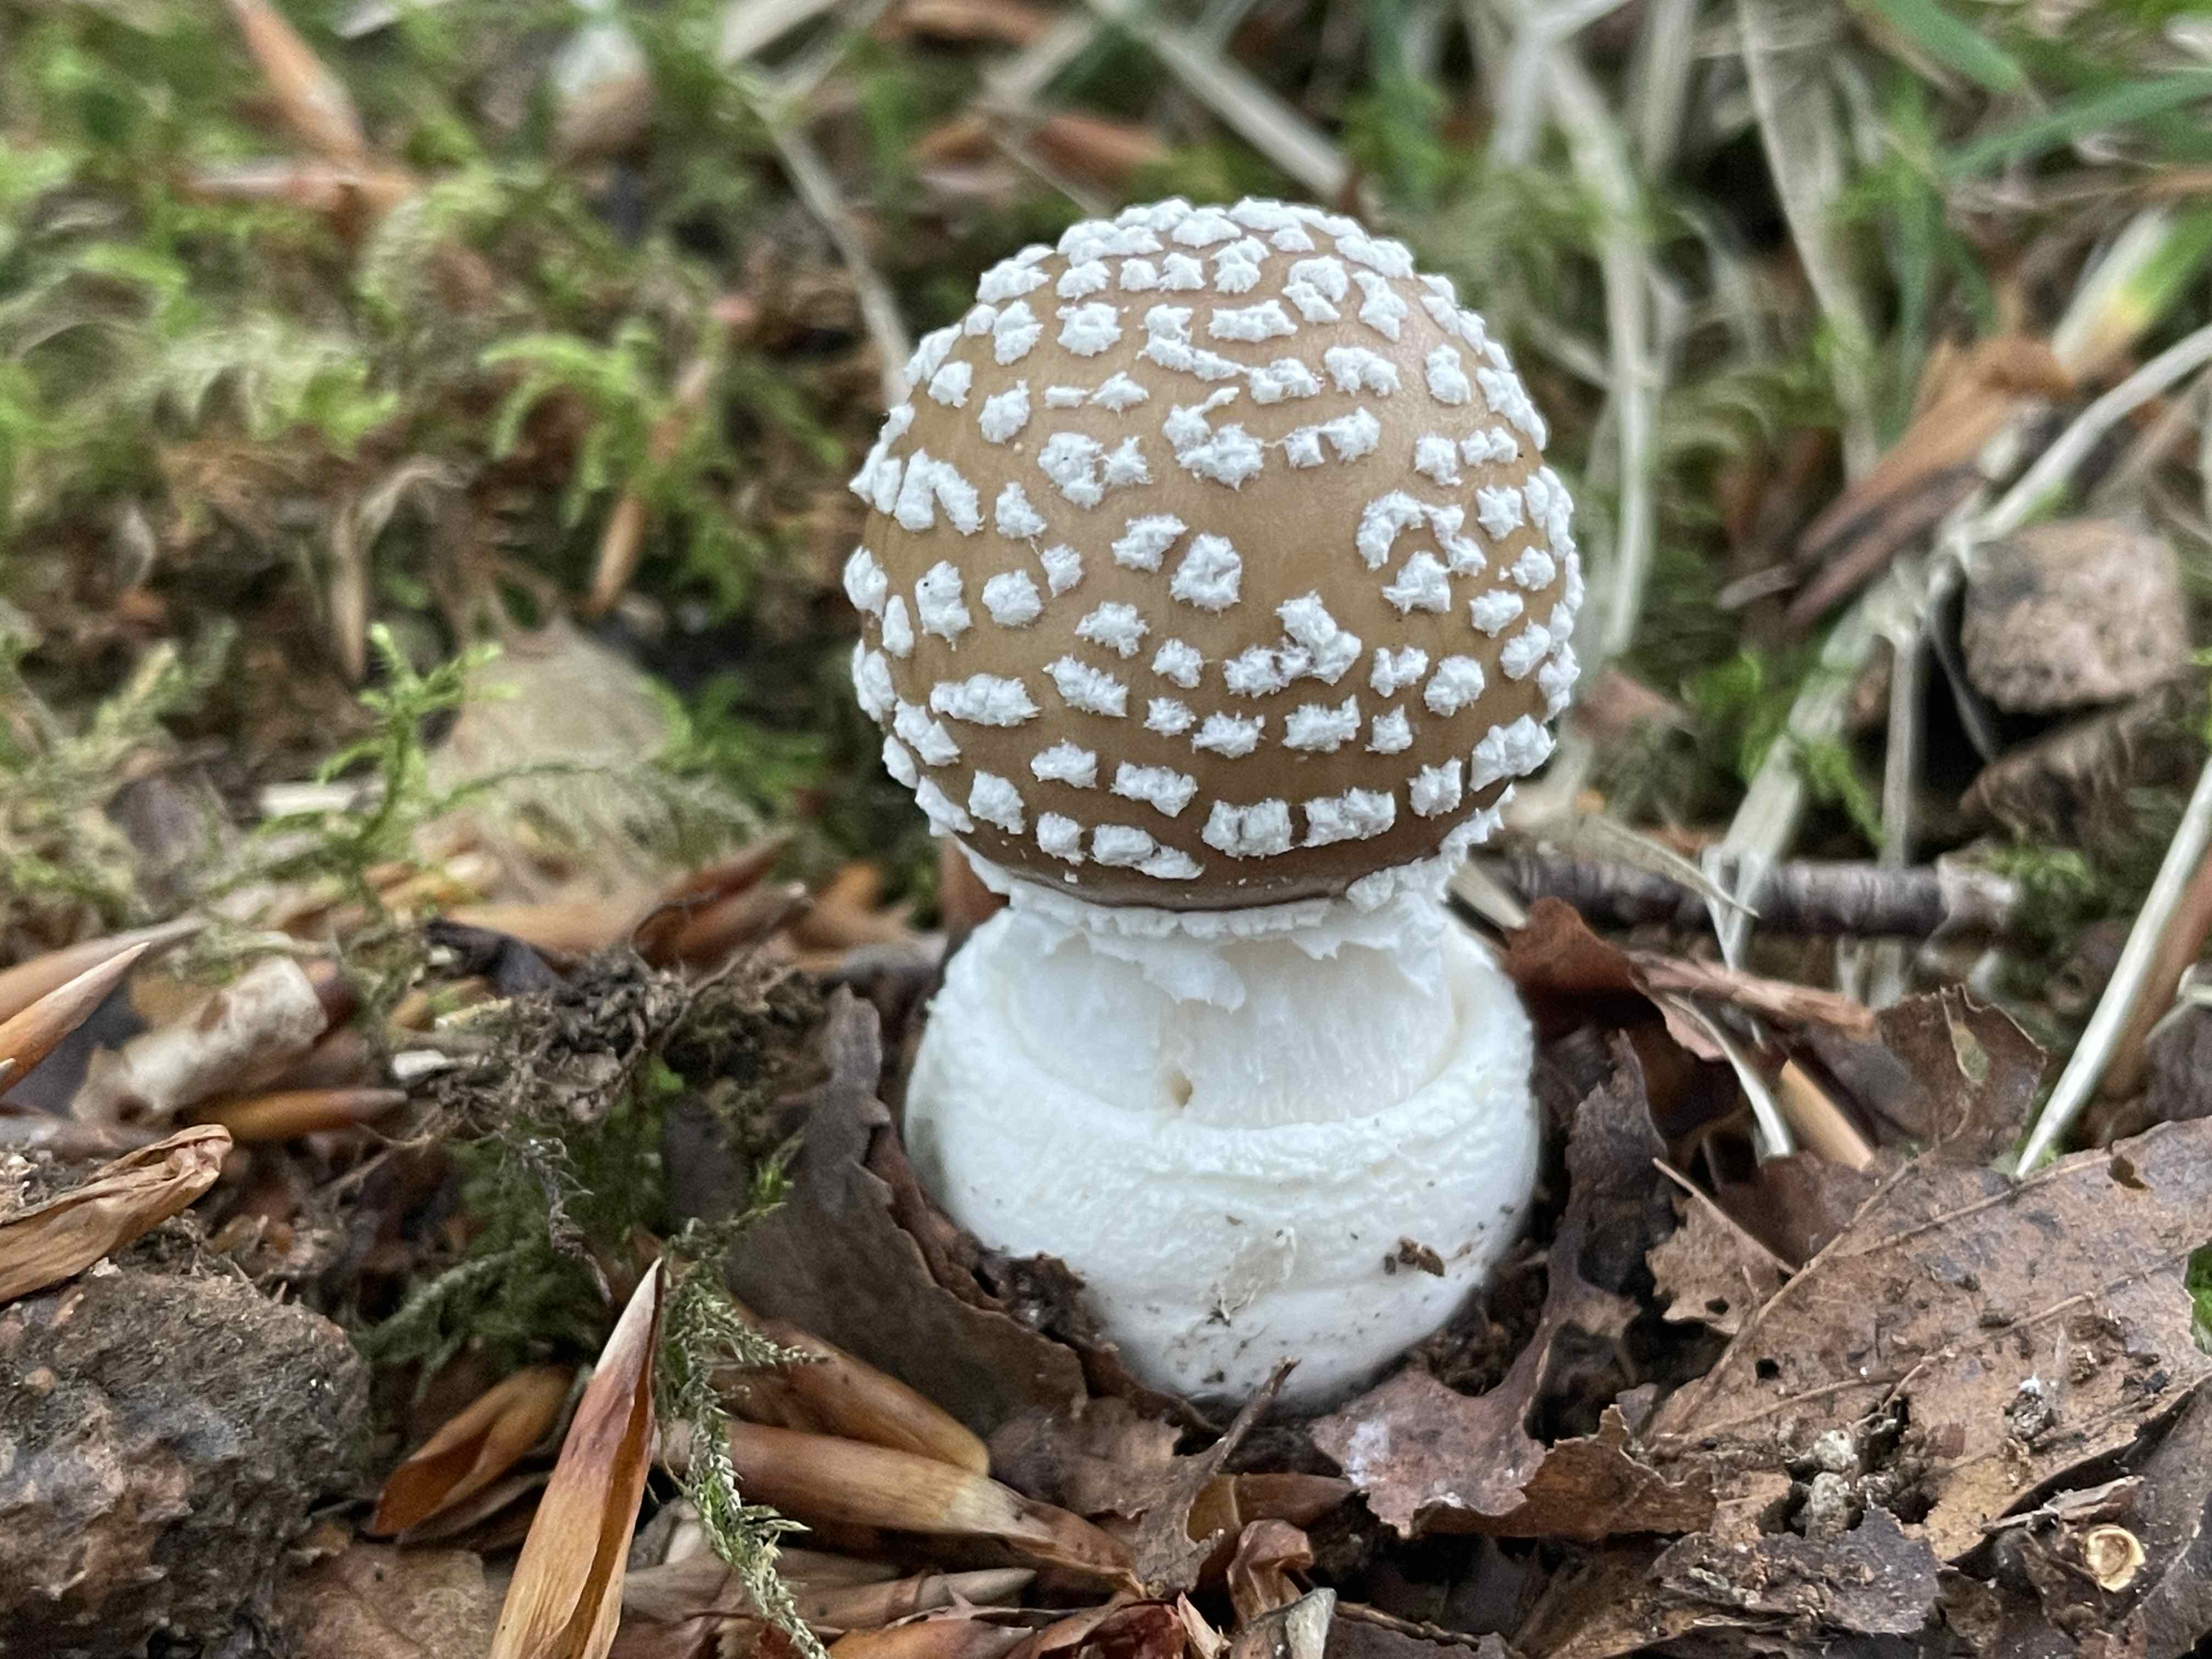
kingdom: Fungi
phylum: Basidiomycota
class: Agaricomycetes
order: Agaricales
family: Amanitaceae
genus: Amanita
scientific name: Amanita pantherina
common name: panter-fluesvamp
